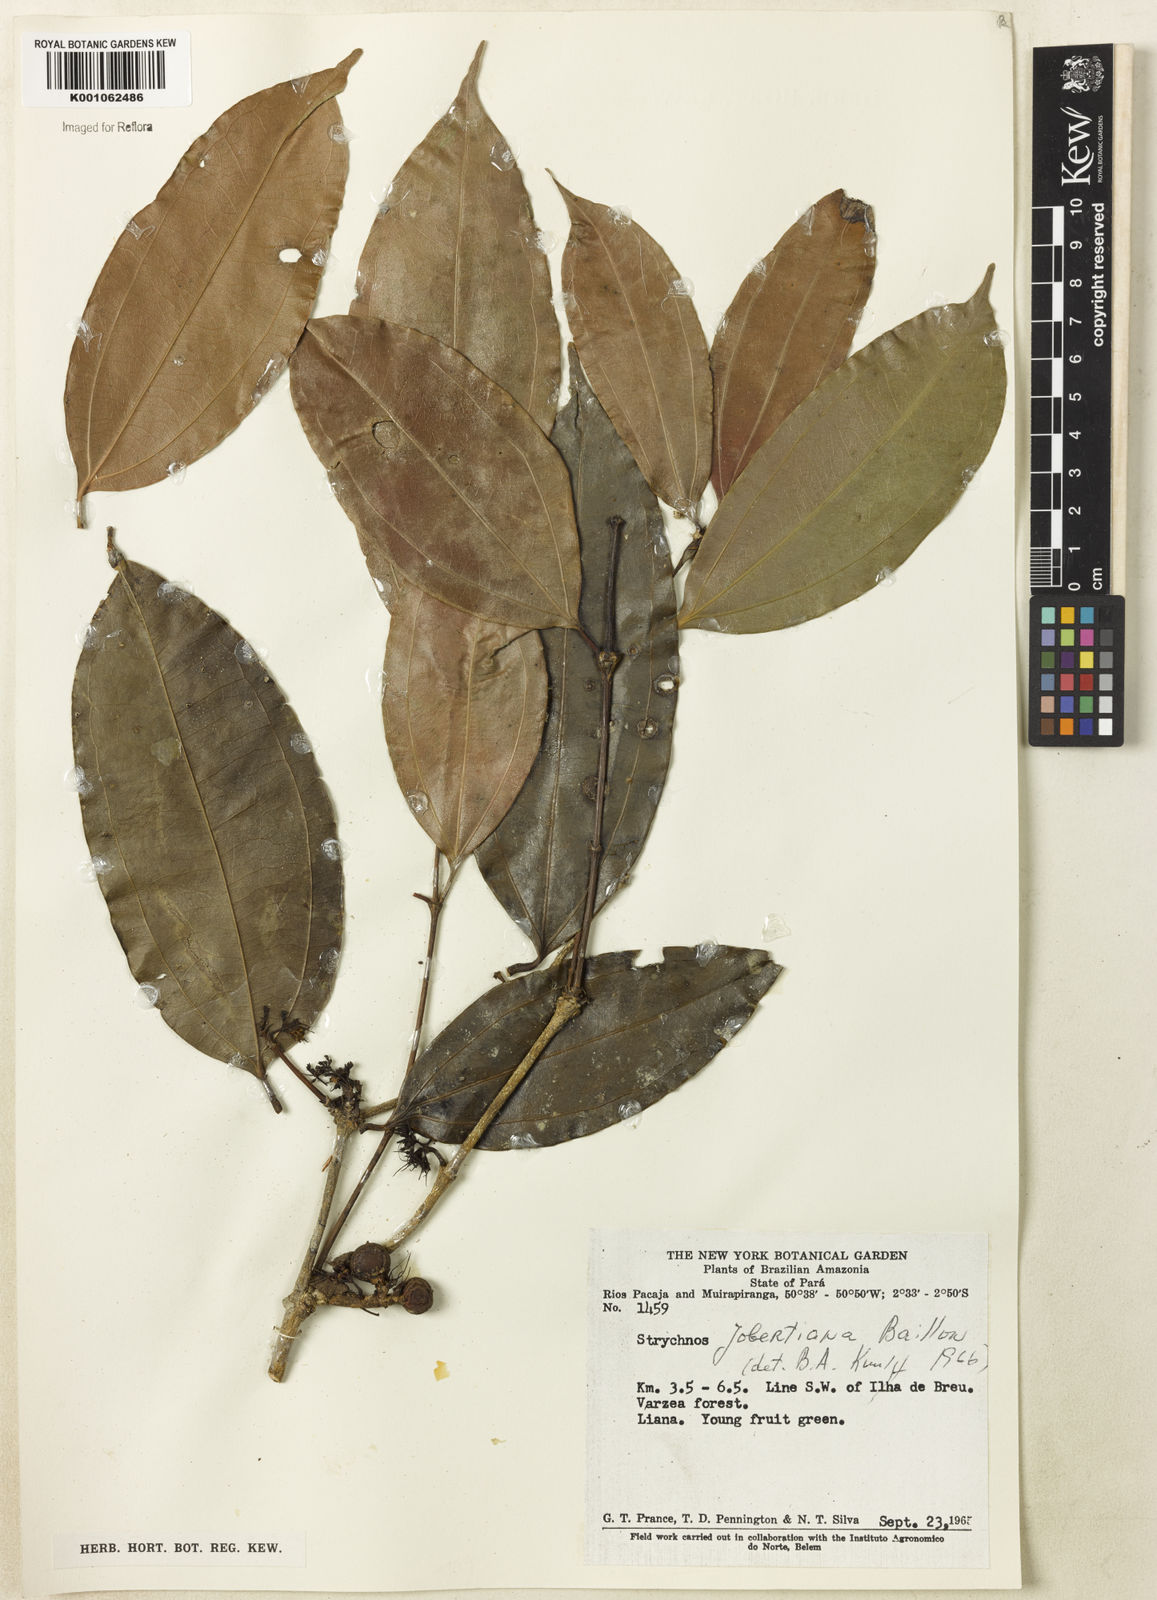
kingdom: Plantae
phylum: Tracheophyta
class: Magnoliopsida
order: Gentianales
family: Loganiaceae
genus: Strychnos
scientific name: Strychnos jobertiana
